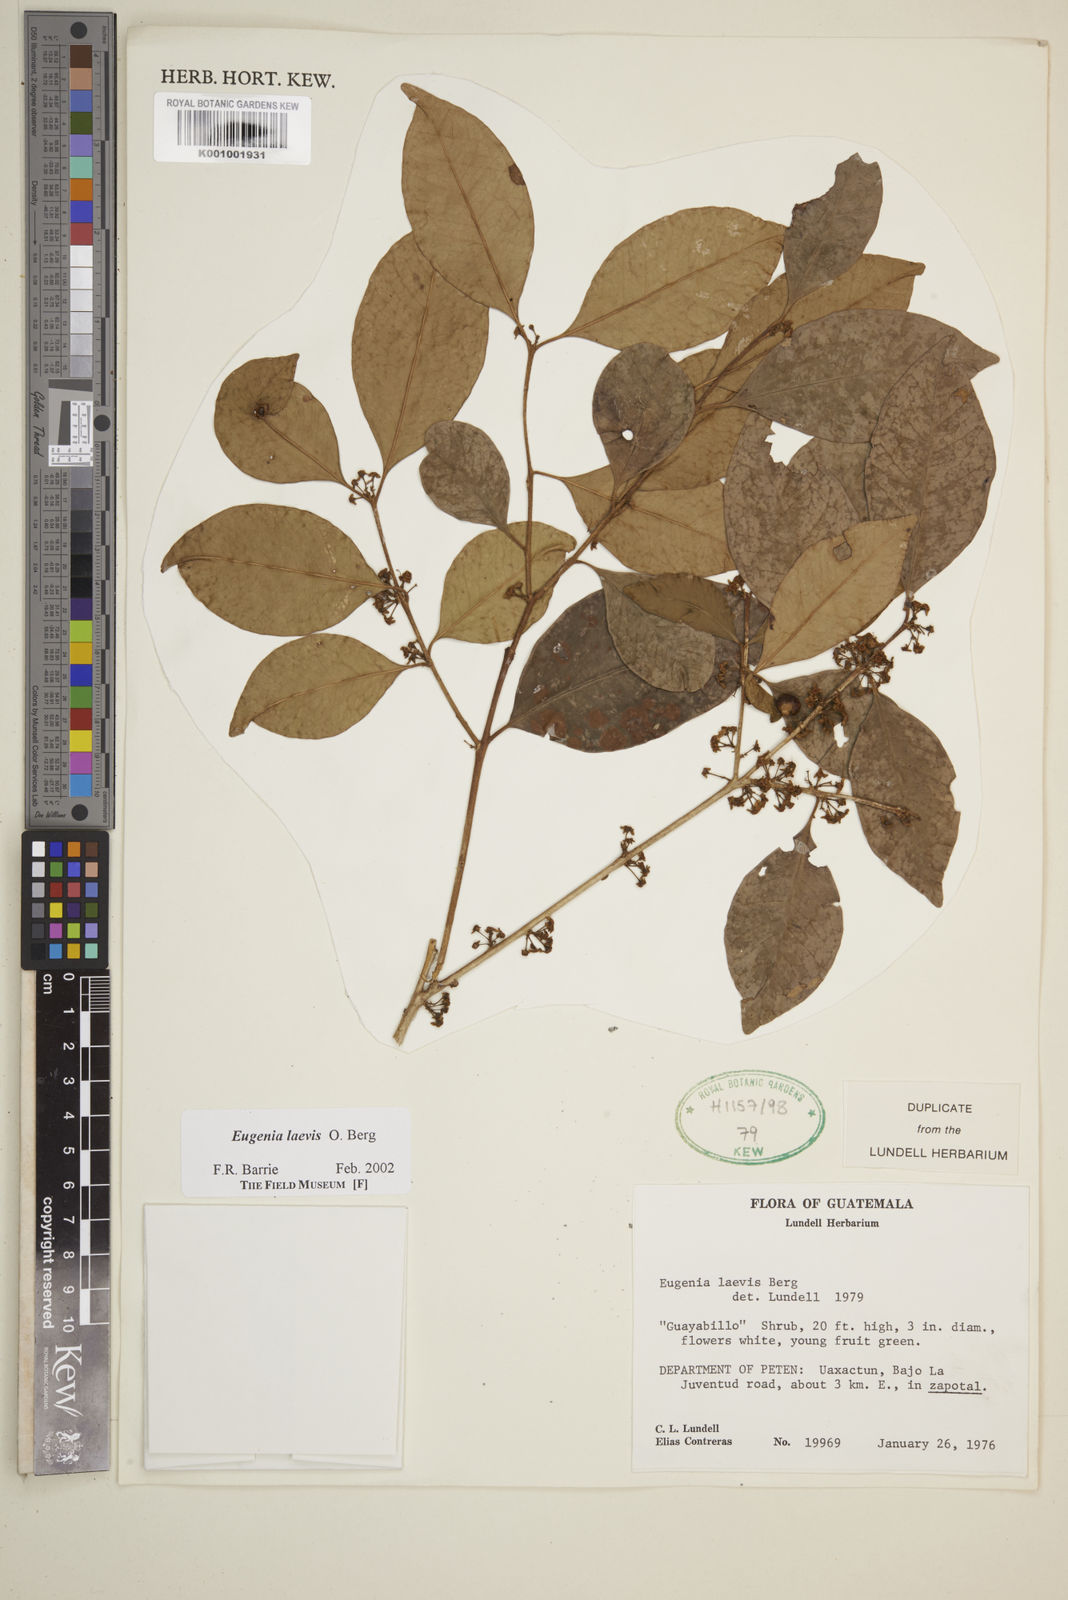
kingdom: Plantae
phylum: Tracheophyta
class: Magnoliopsida
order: Myrtales
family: Myrtaceae
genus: Eugenia
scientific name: Eugenia laevis
